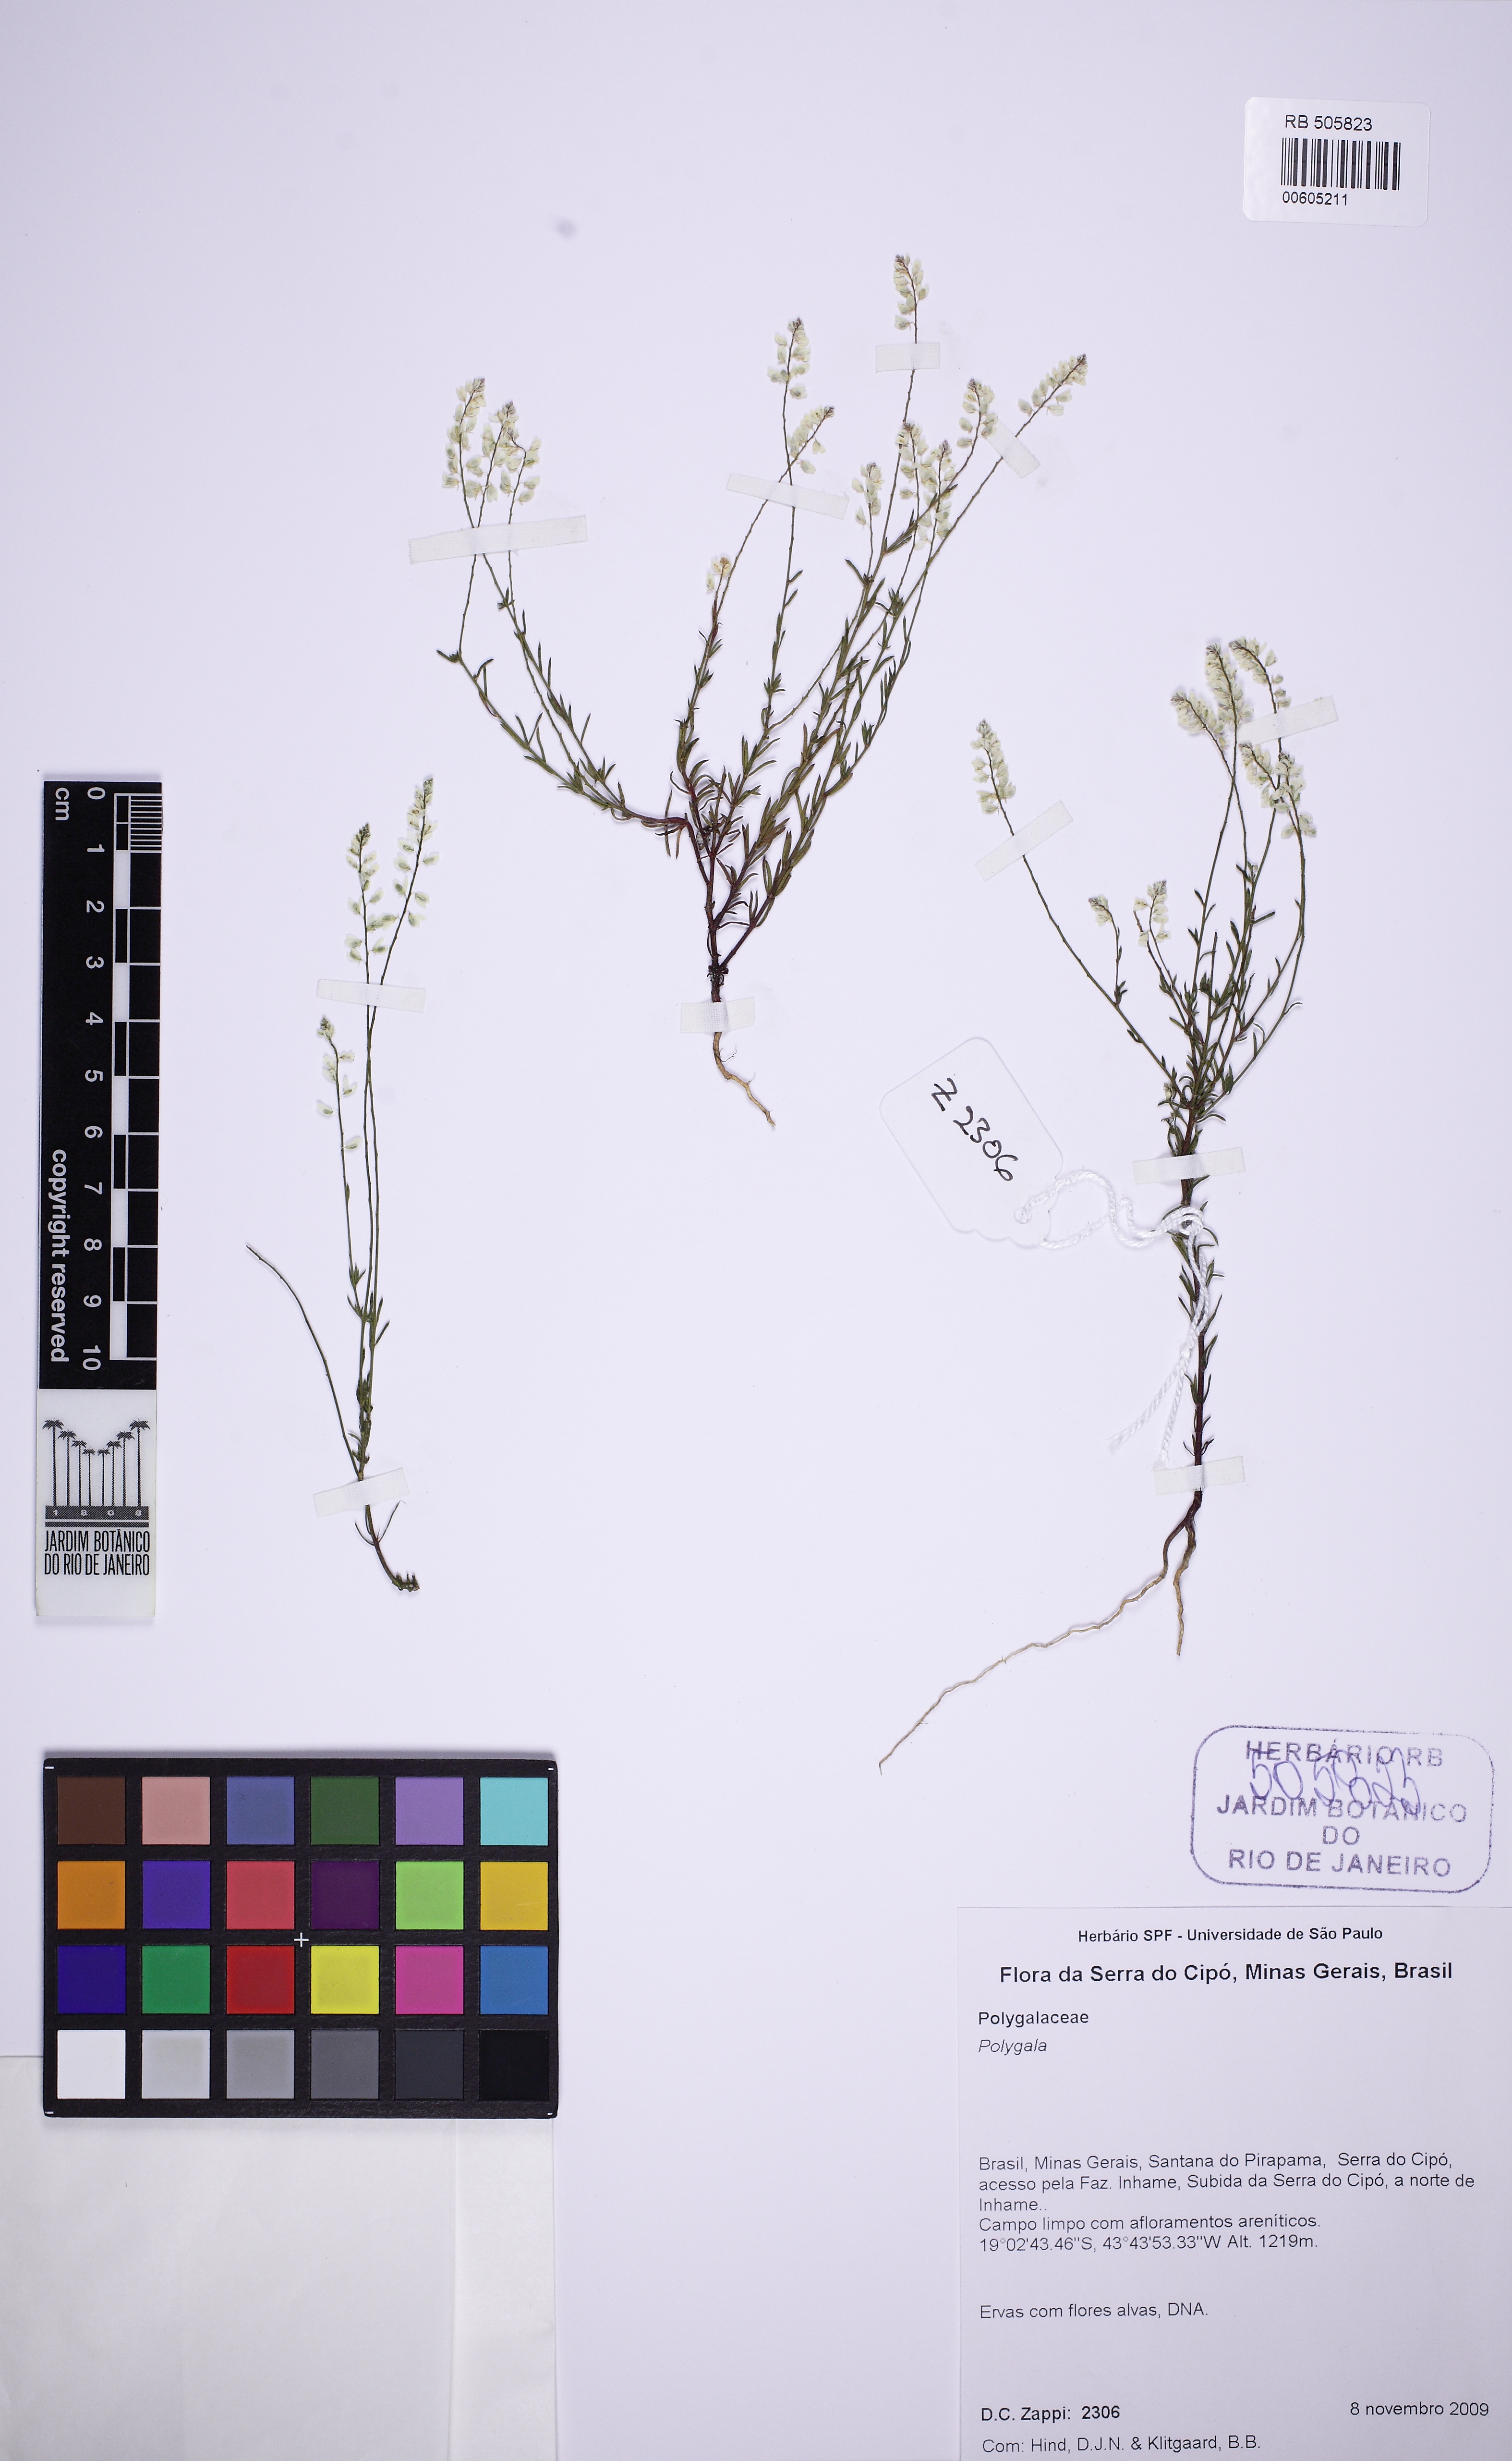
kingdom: Plantae
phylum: Tracheophyta
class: Magnoliopsida
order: Fabales
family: Polygalaceae
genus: Polygala
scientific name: Polygala glochidiata
